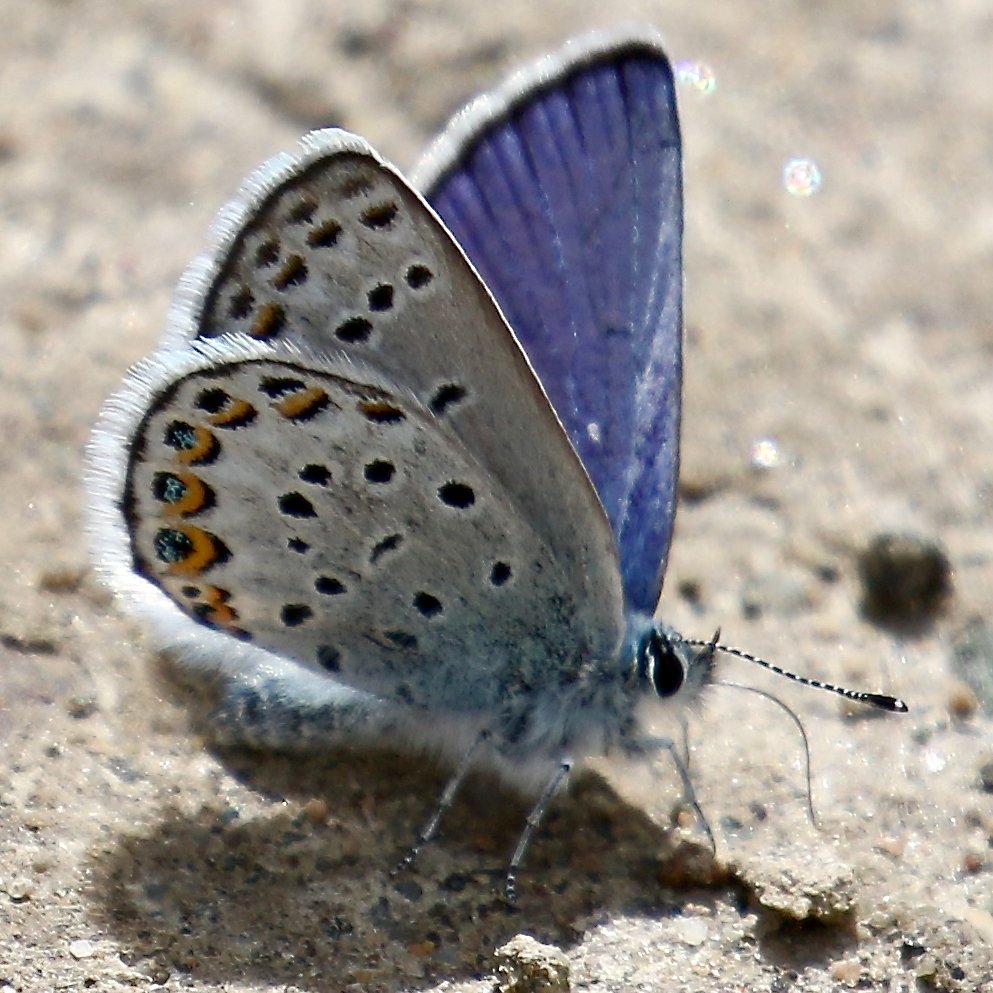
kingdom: Animalia
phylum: Arthropoda
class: Insecta
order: Lepidoptera
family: Lycaenidae
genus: Lycaeides
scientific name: Lycaeides idas
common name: Northern Blue
